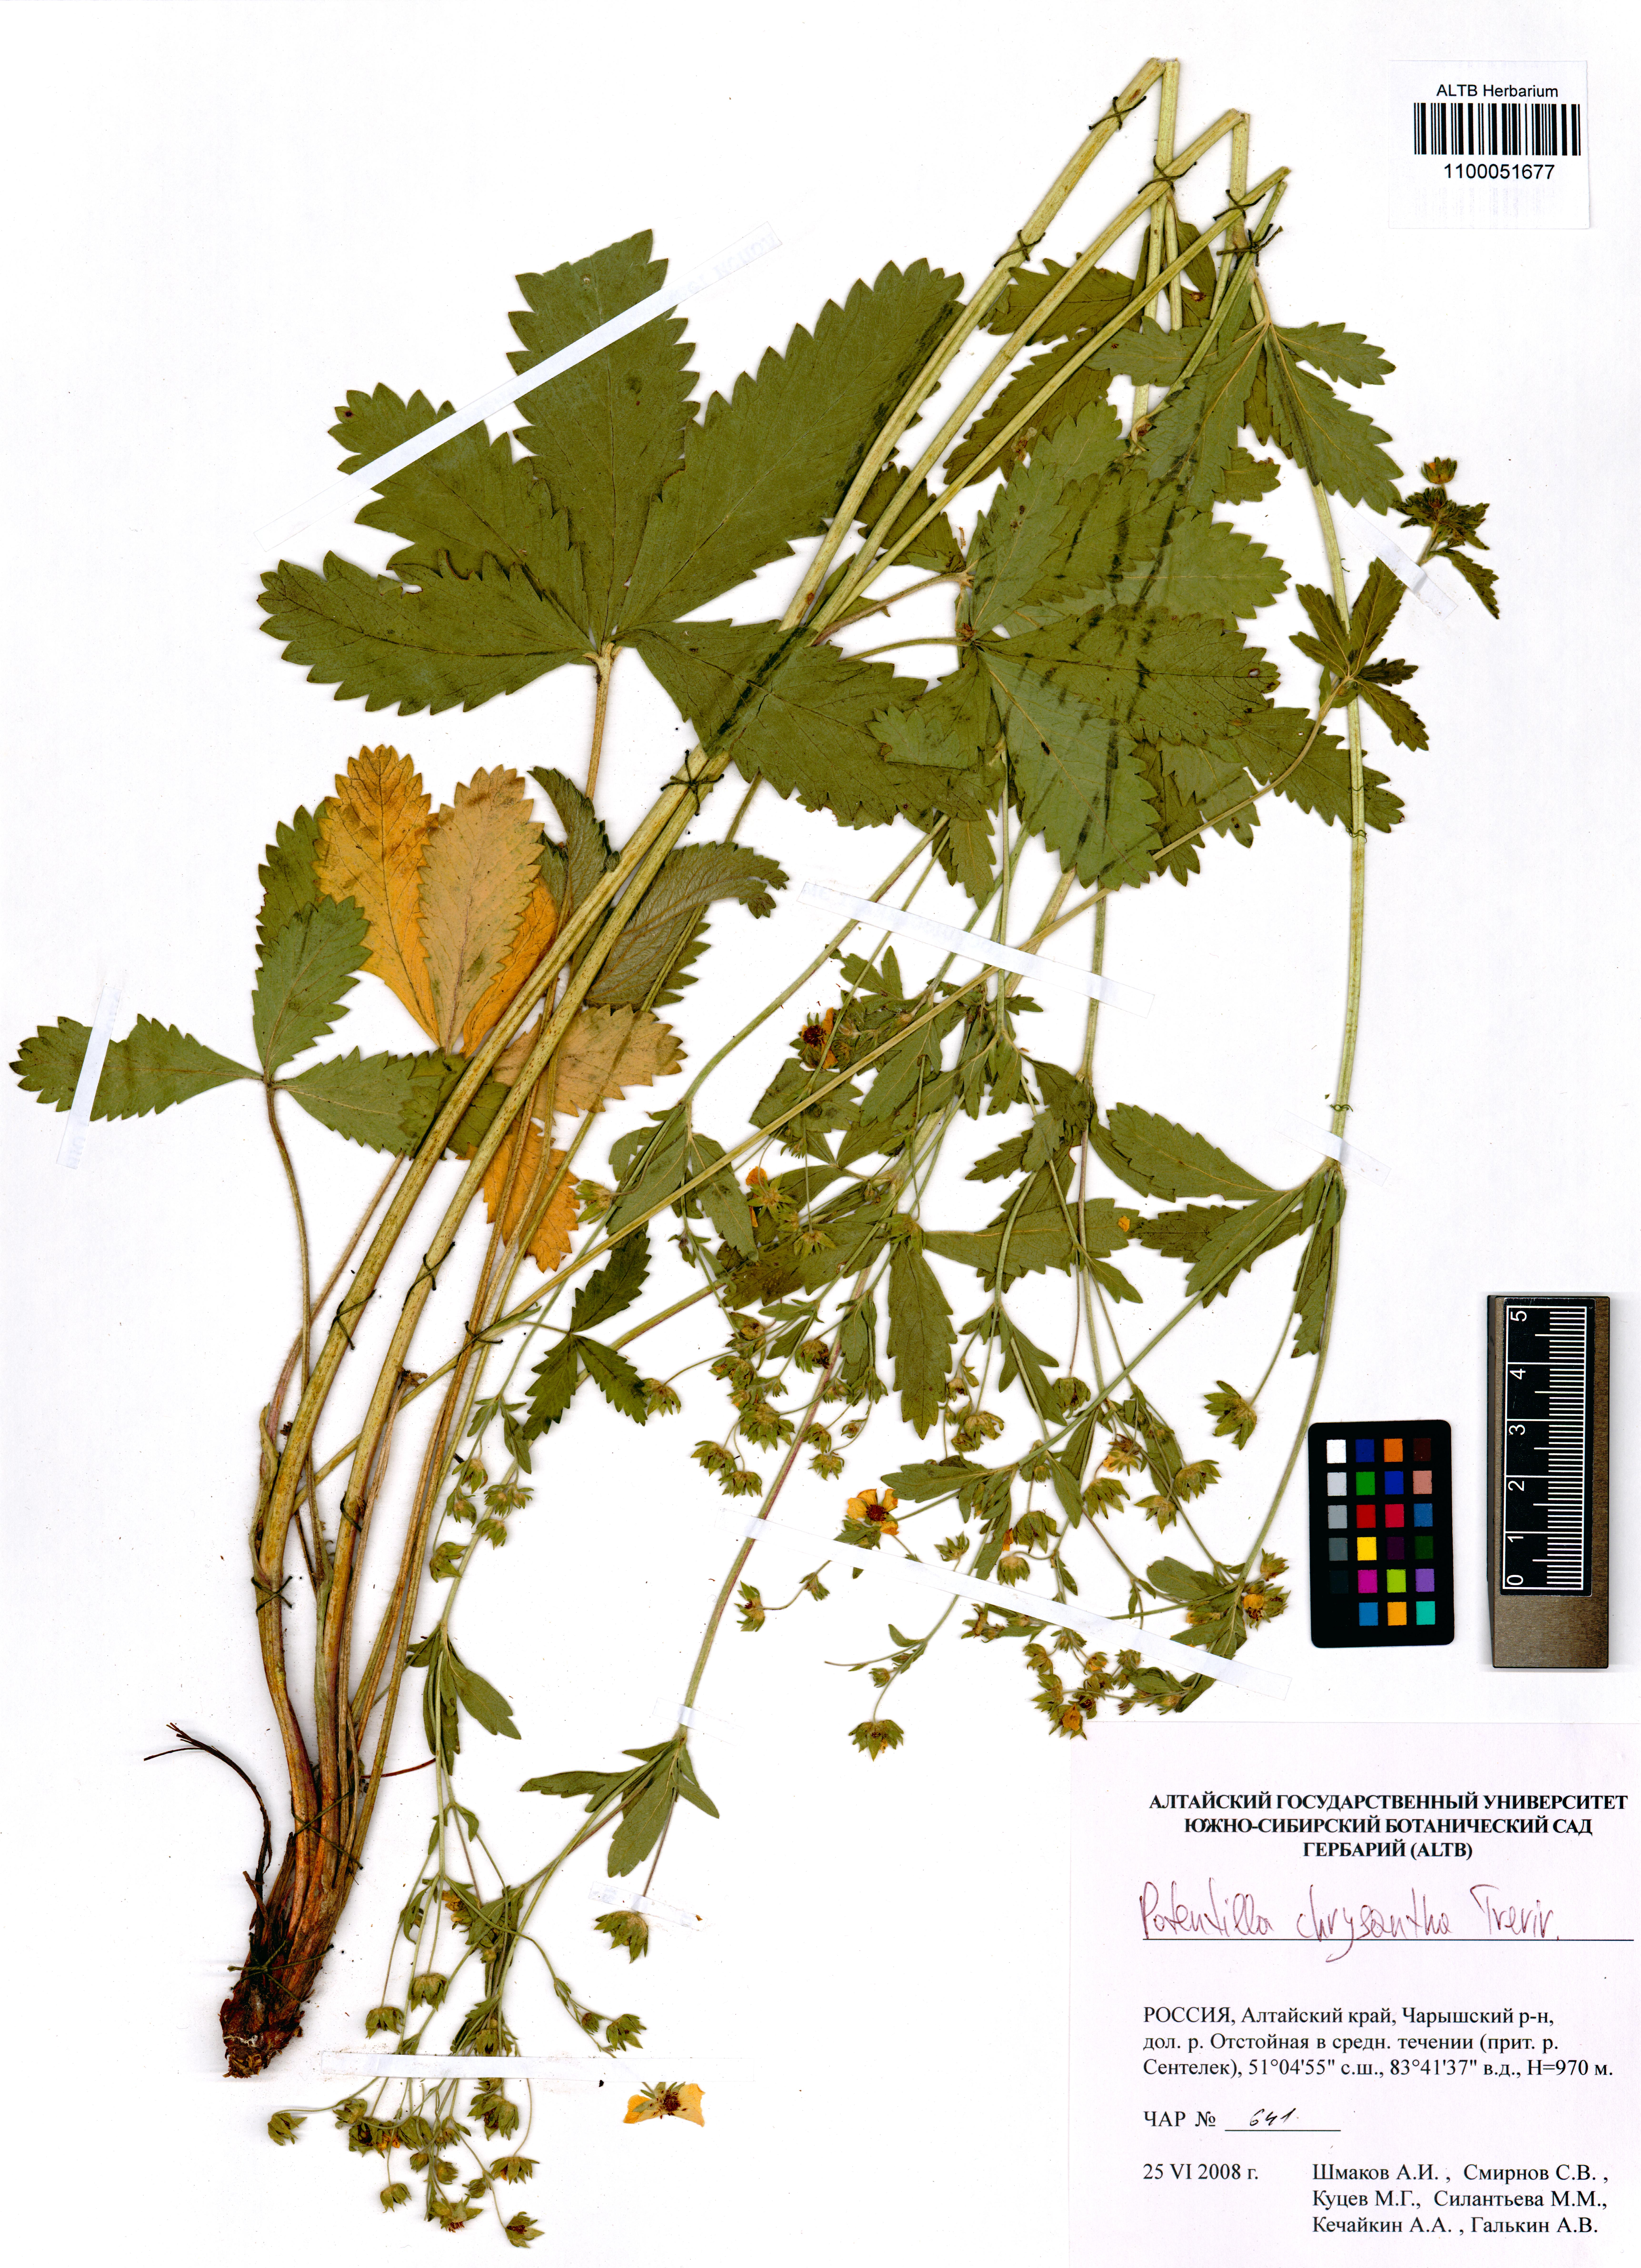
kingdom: Plantae
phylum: Tracheophyta
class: Magnoliopsida
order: Rosales
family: Rosaceae
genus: Potentilla
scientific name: Potentilla chrysantha
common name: Thuringian cinquefoil
